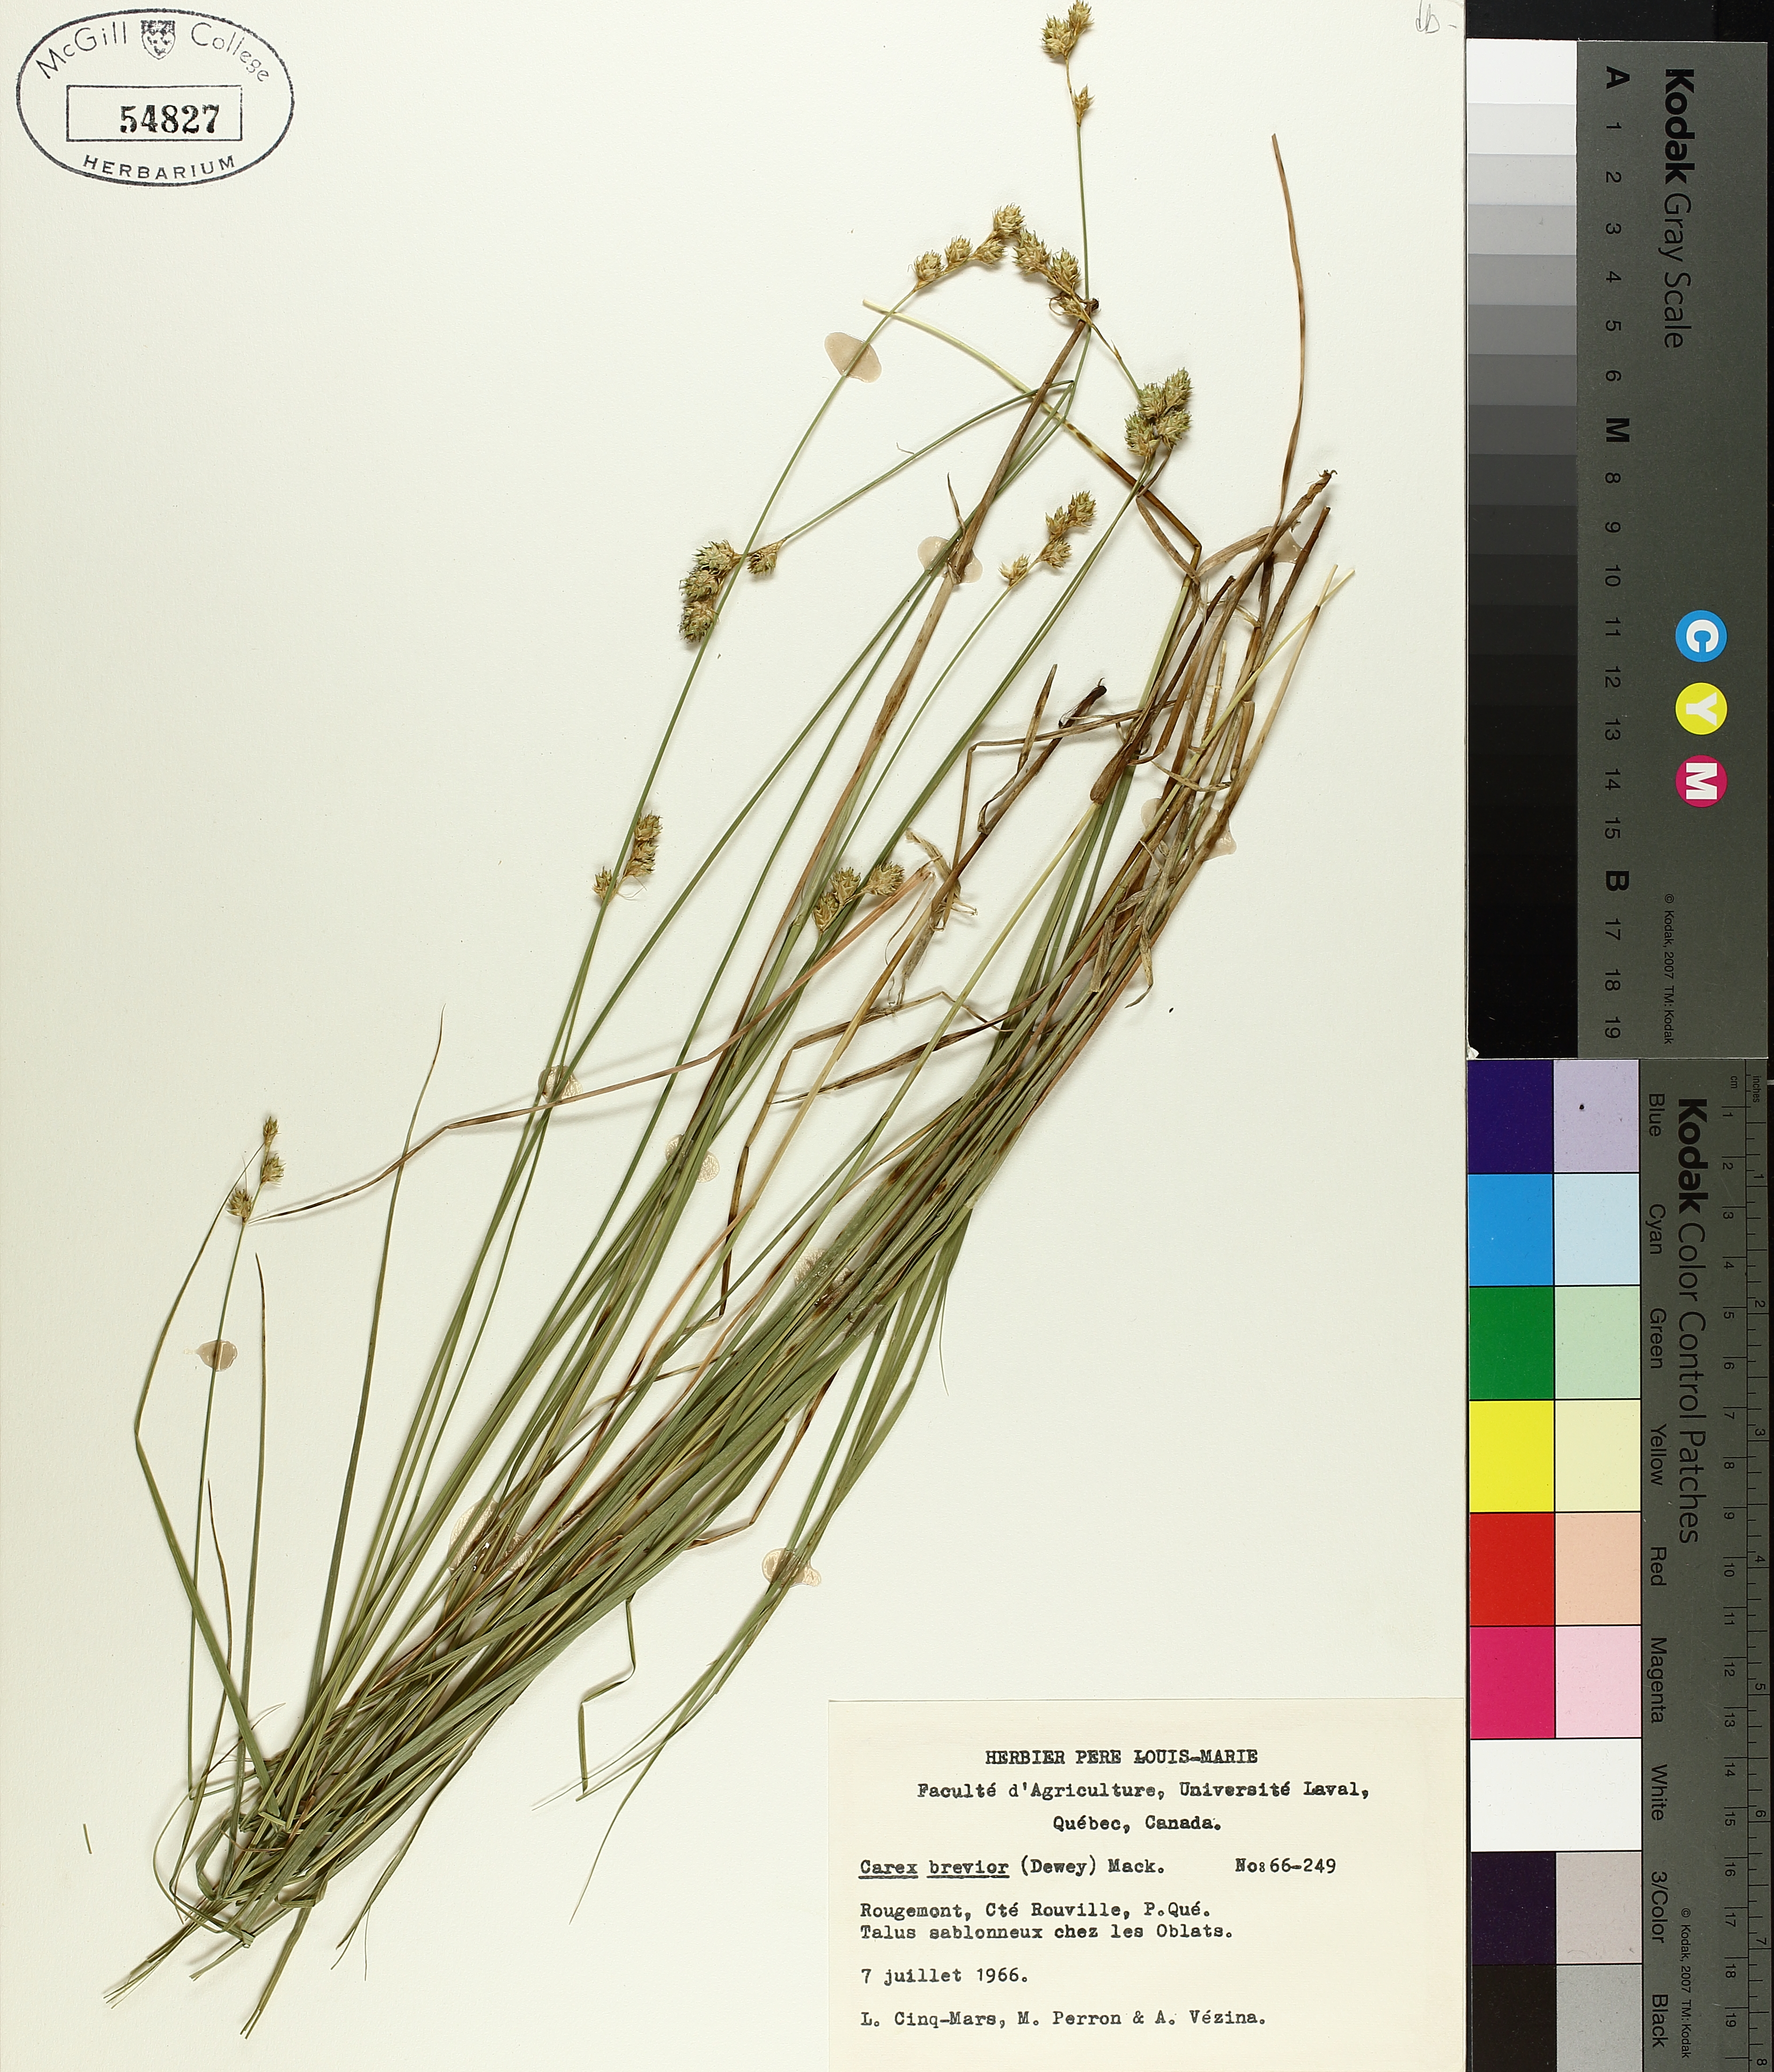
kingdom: Plantae
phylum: Tracheophyta
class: Liliopsida
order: Poales
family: Cyperaceae
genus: Carex
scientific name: Carex brevior
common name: Brevior sedge
